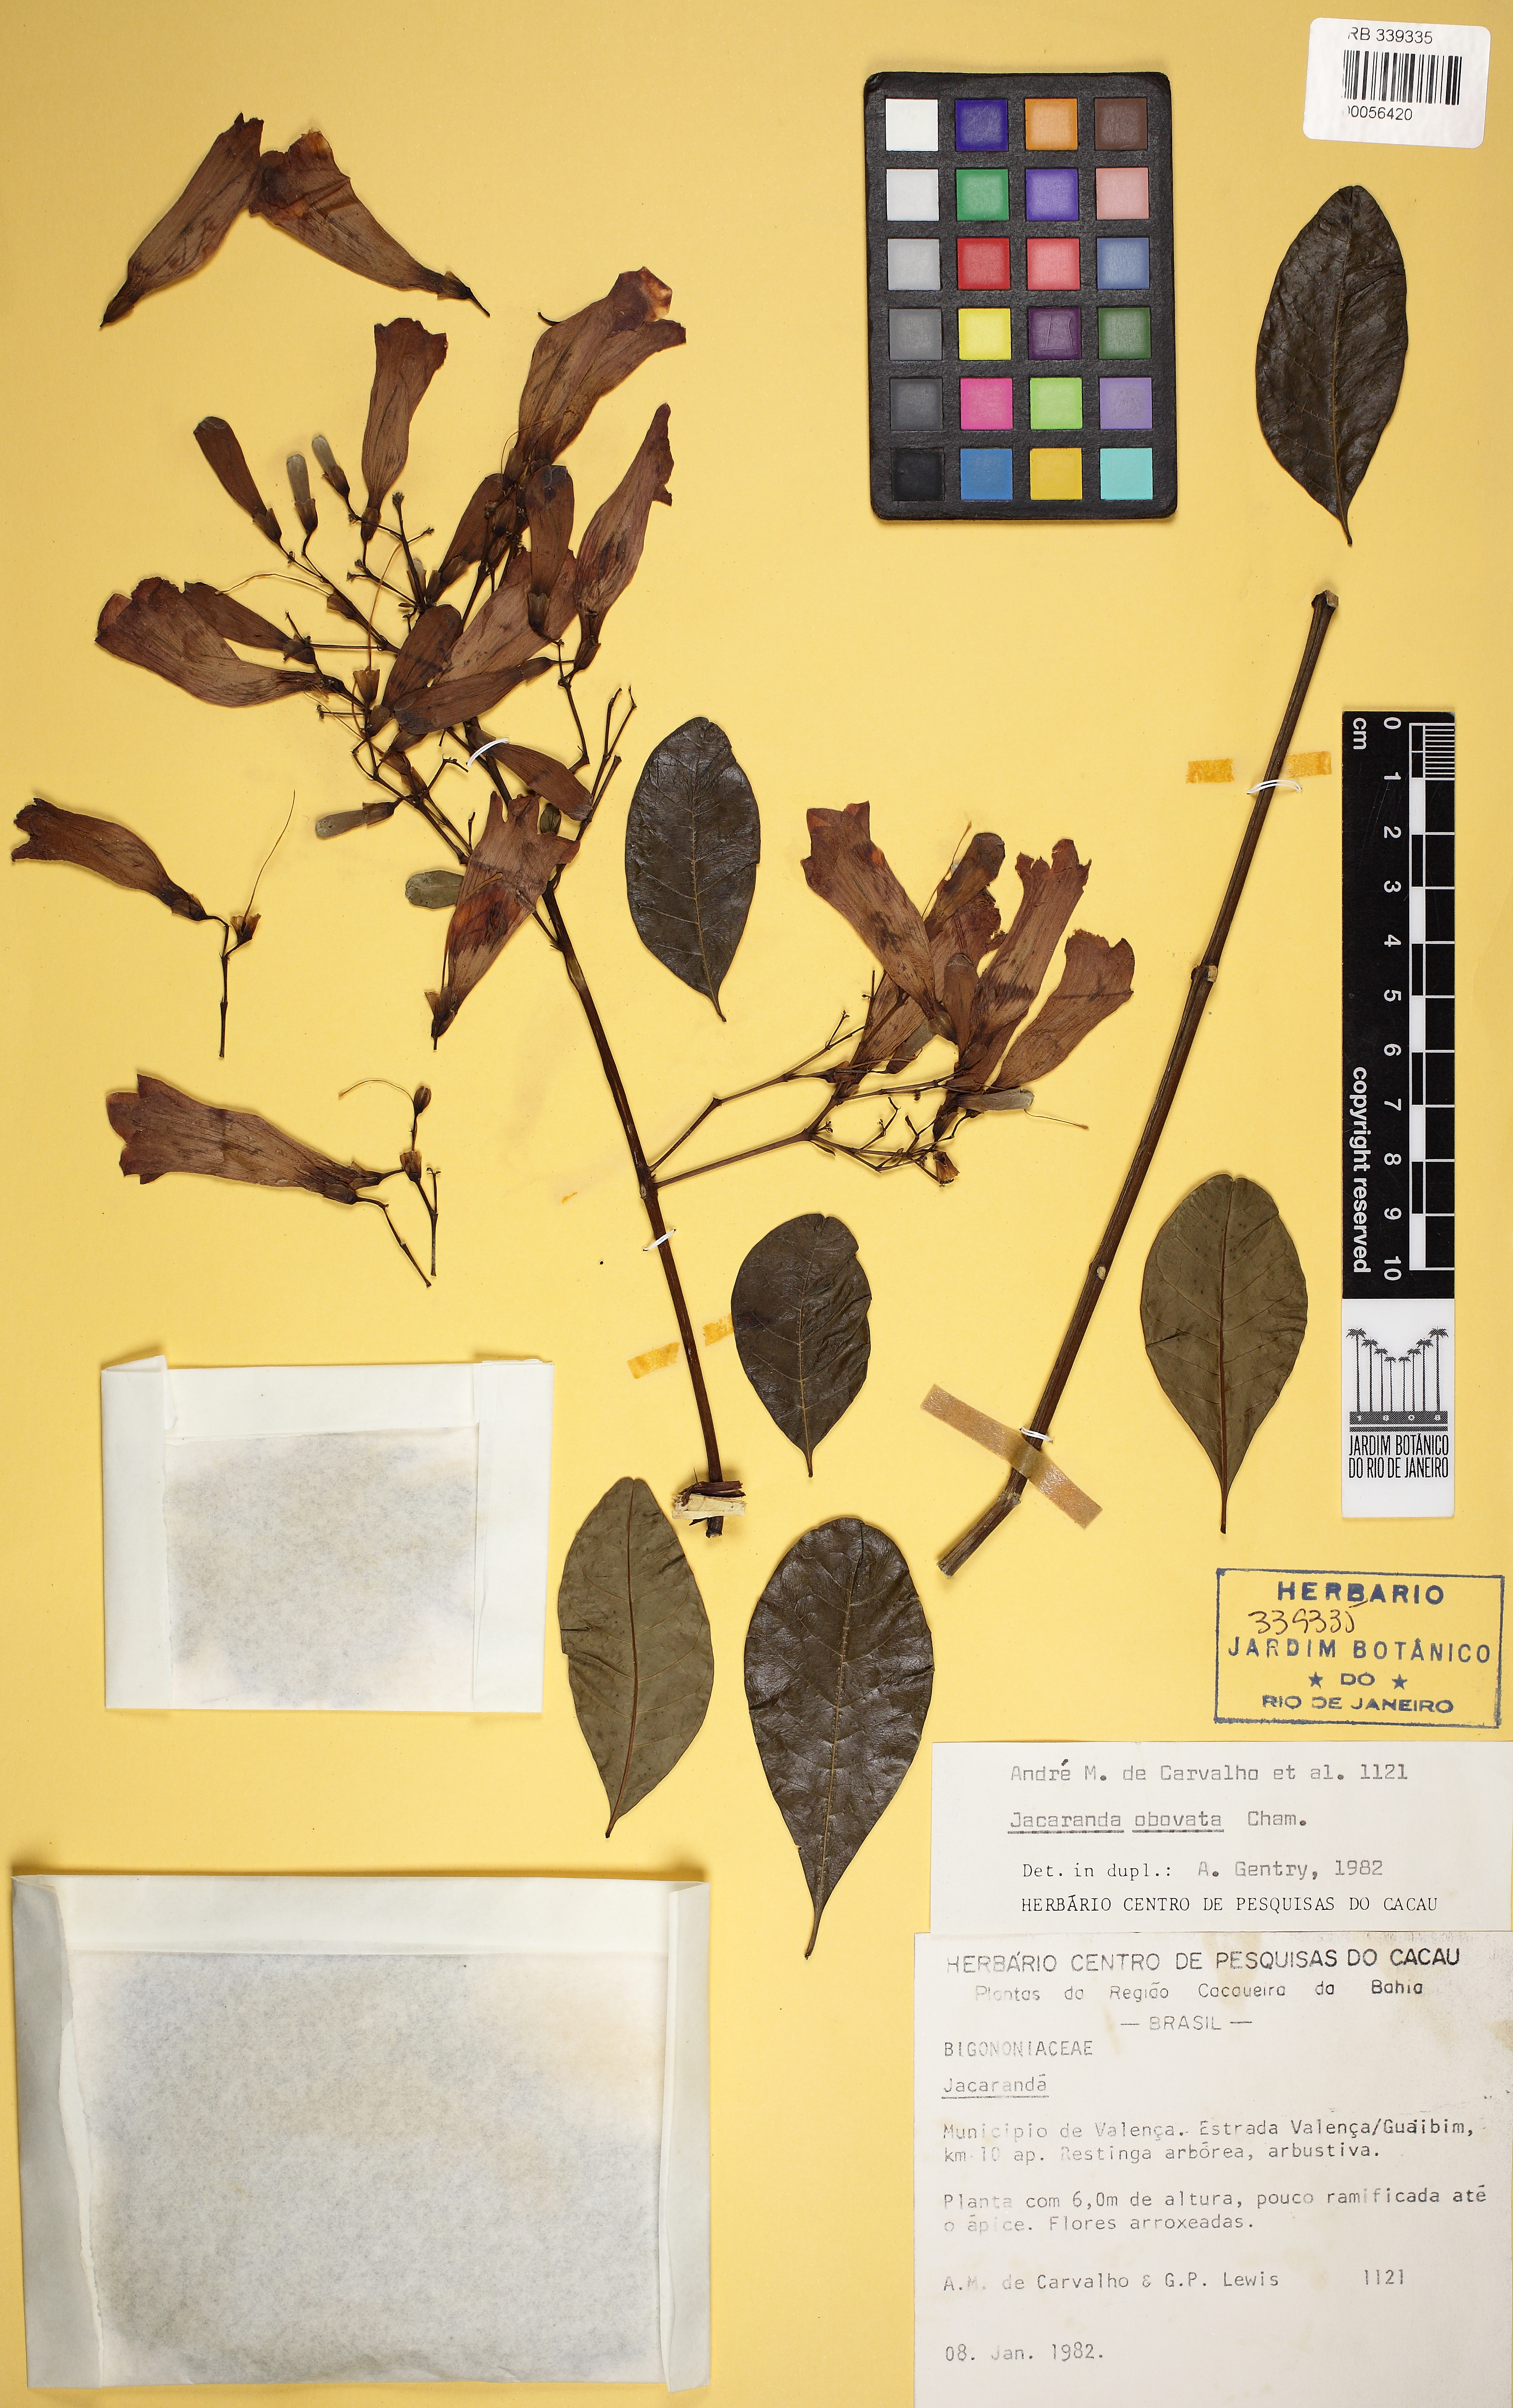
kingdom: Plantae
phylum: Tracheophyta
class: Magnoliopsida
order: Lamiales
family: Bignoniaceae
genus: Jacaranda
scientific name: Jacaranda obovata
